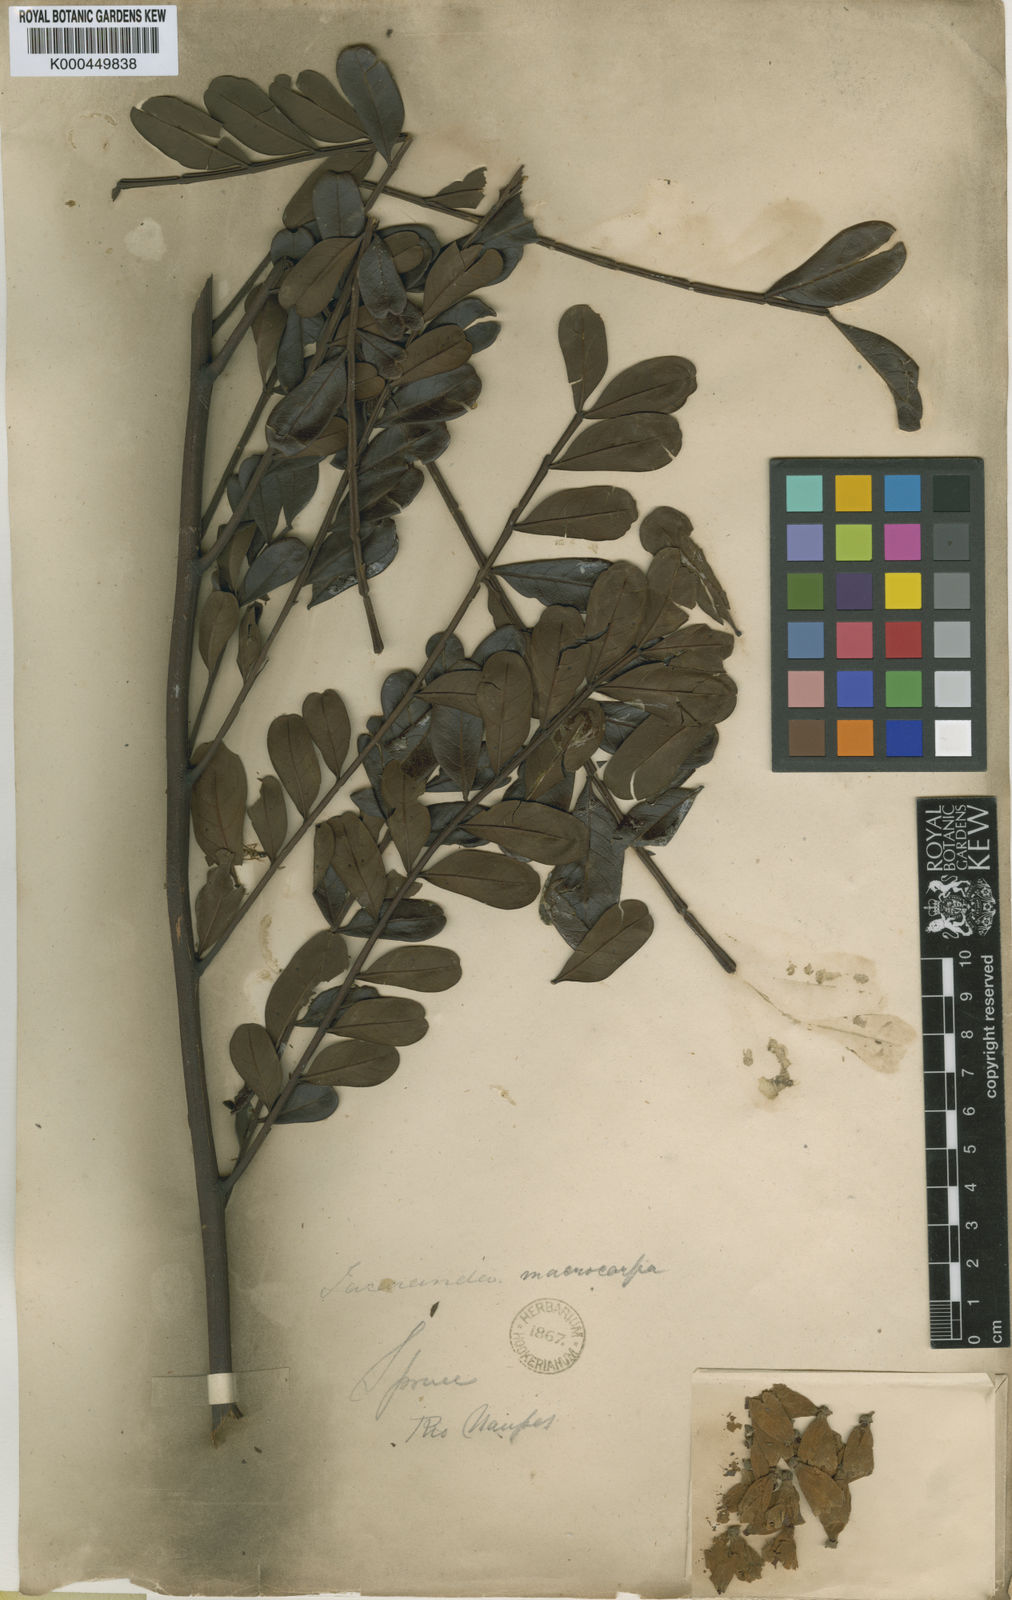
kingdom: Plantae
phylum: Tracheophyta
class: Magnoliopsida
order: Lamiales
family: Bignoniaceae
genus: Jacaranda
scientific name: Jacaranda macrocarpa
